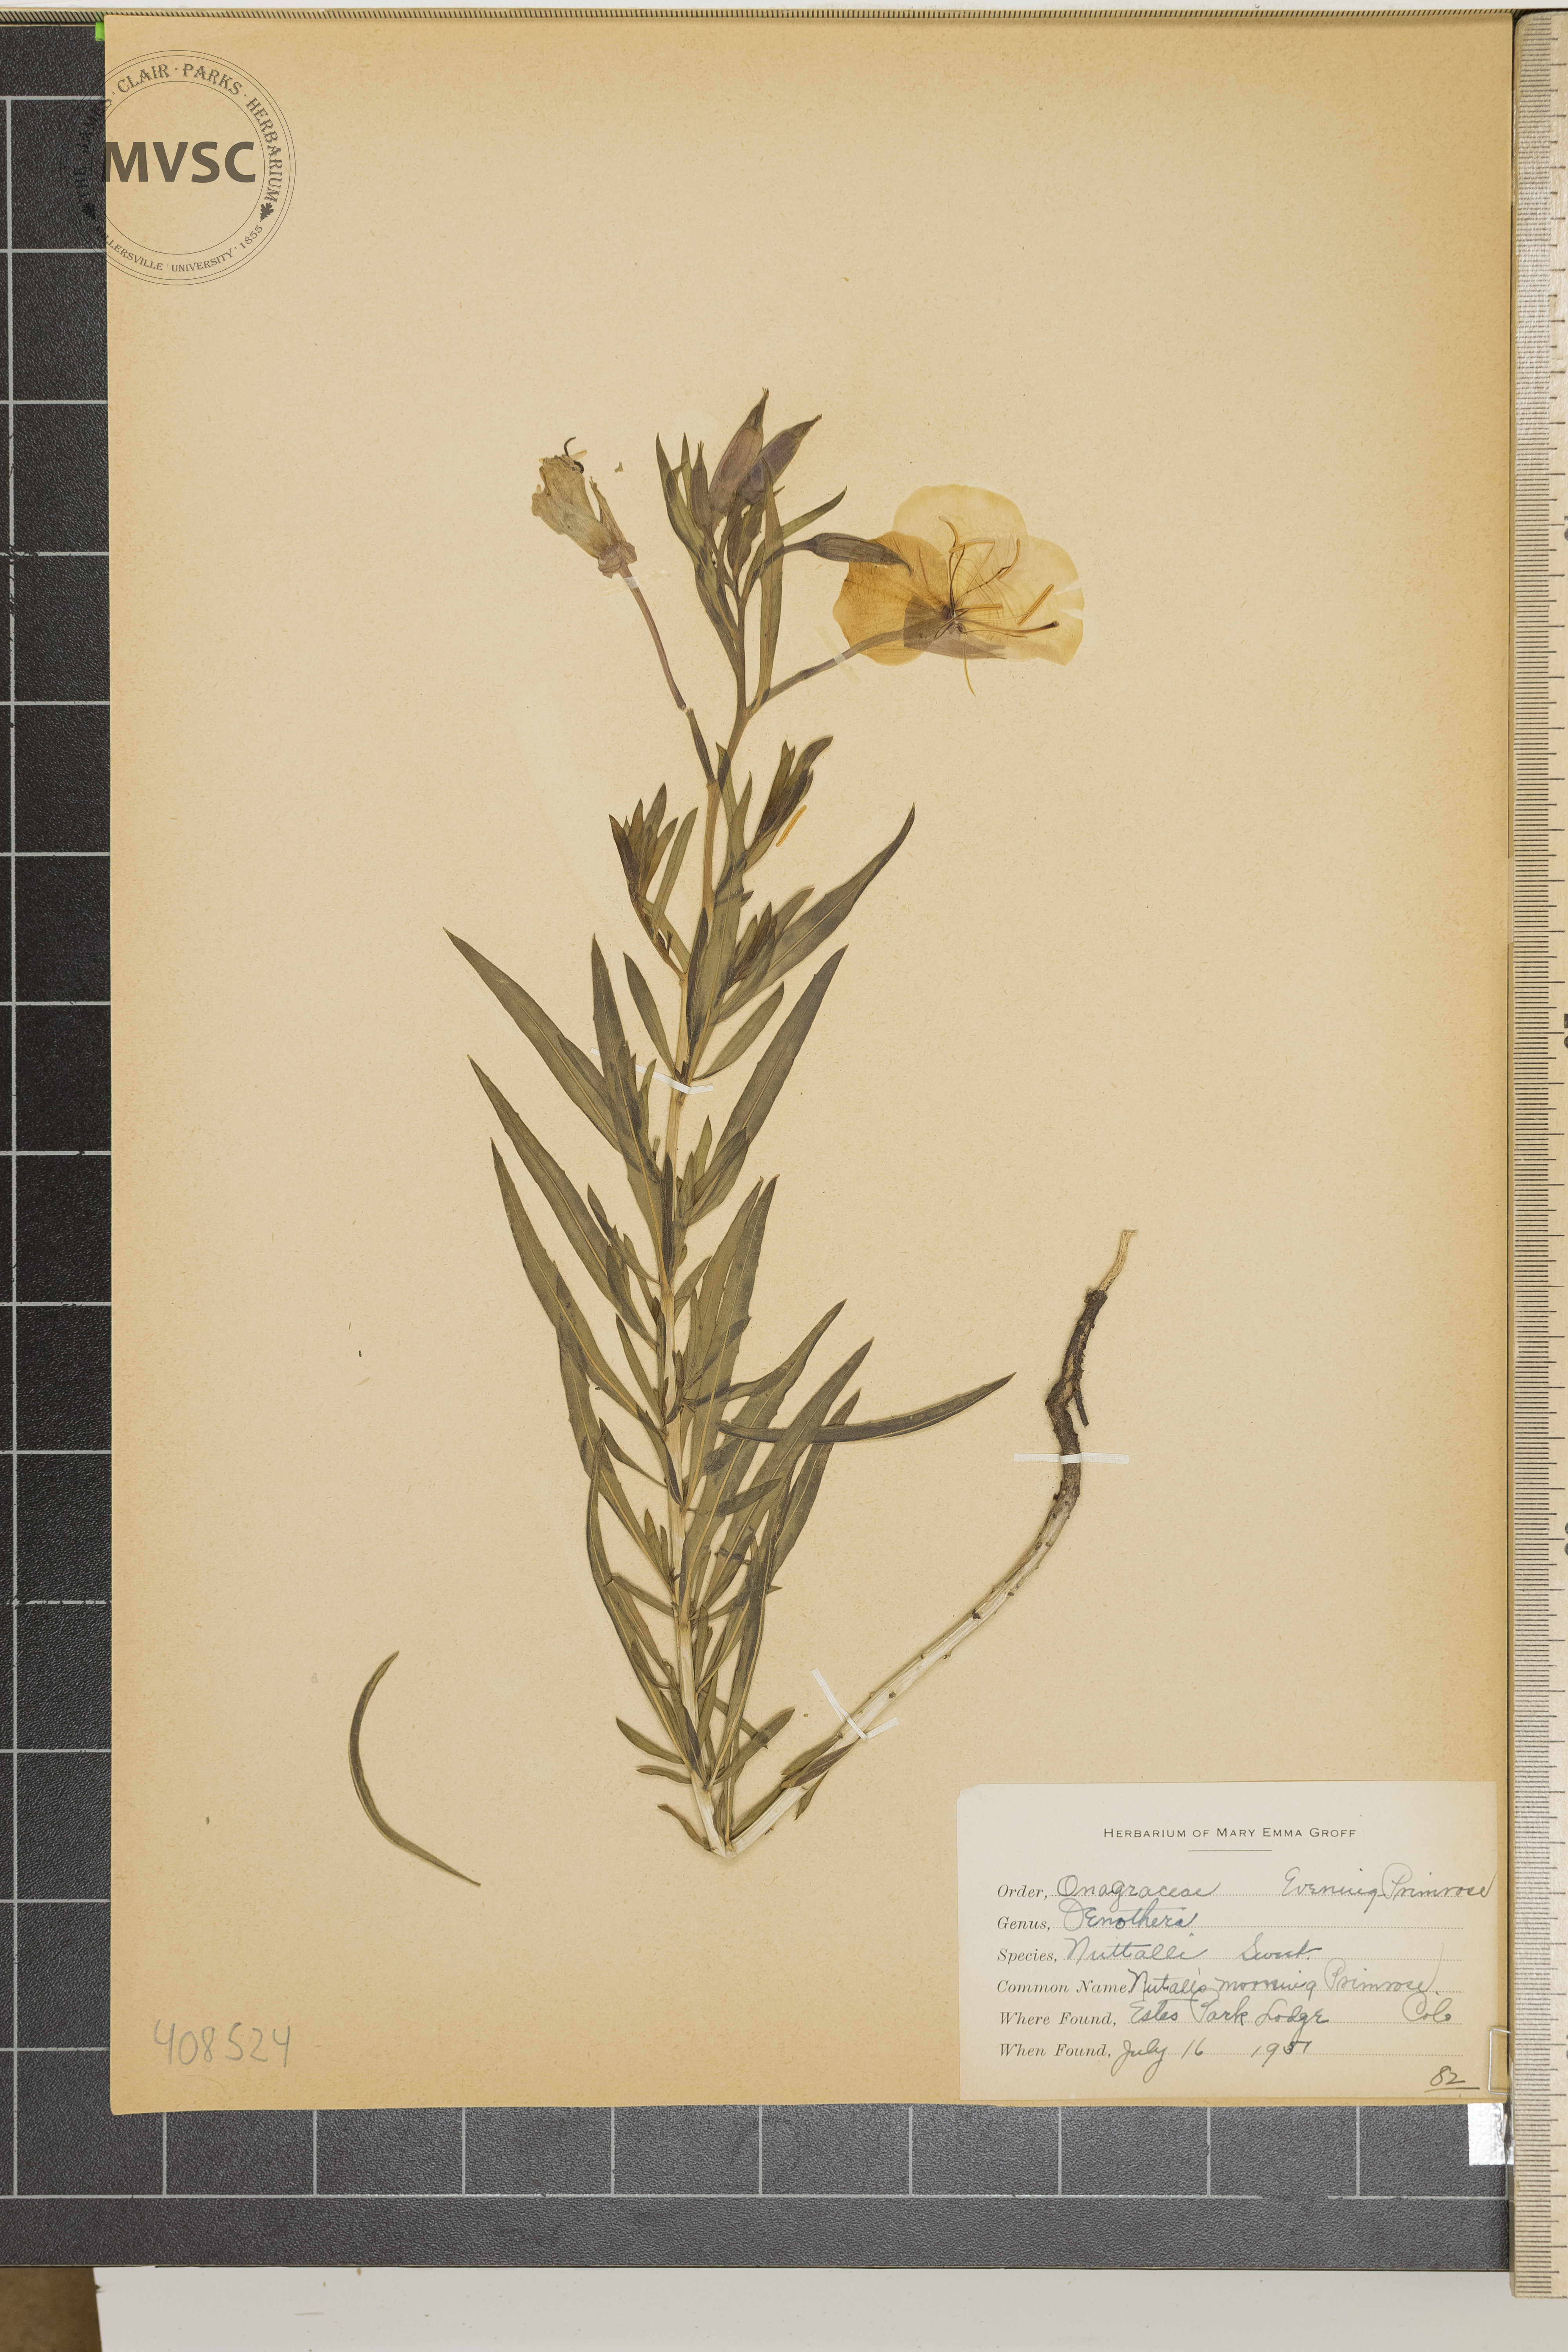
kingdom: Plantae
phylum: Tracheophyta
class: Magnoliopsida
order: Myrtales
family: Onagraceae
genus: Oenothera
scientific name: Oenothera nuttallii
